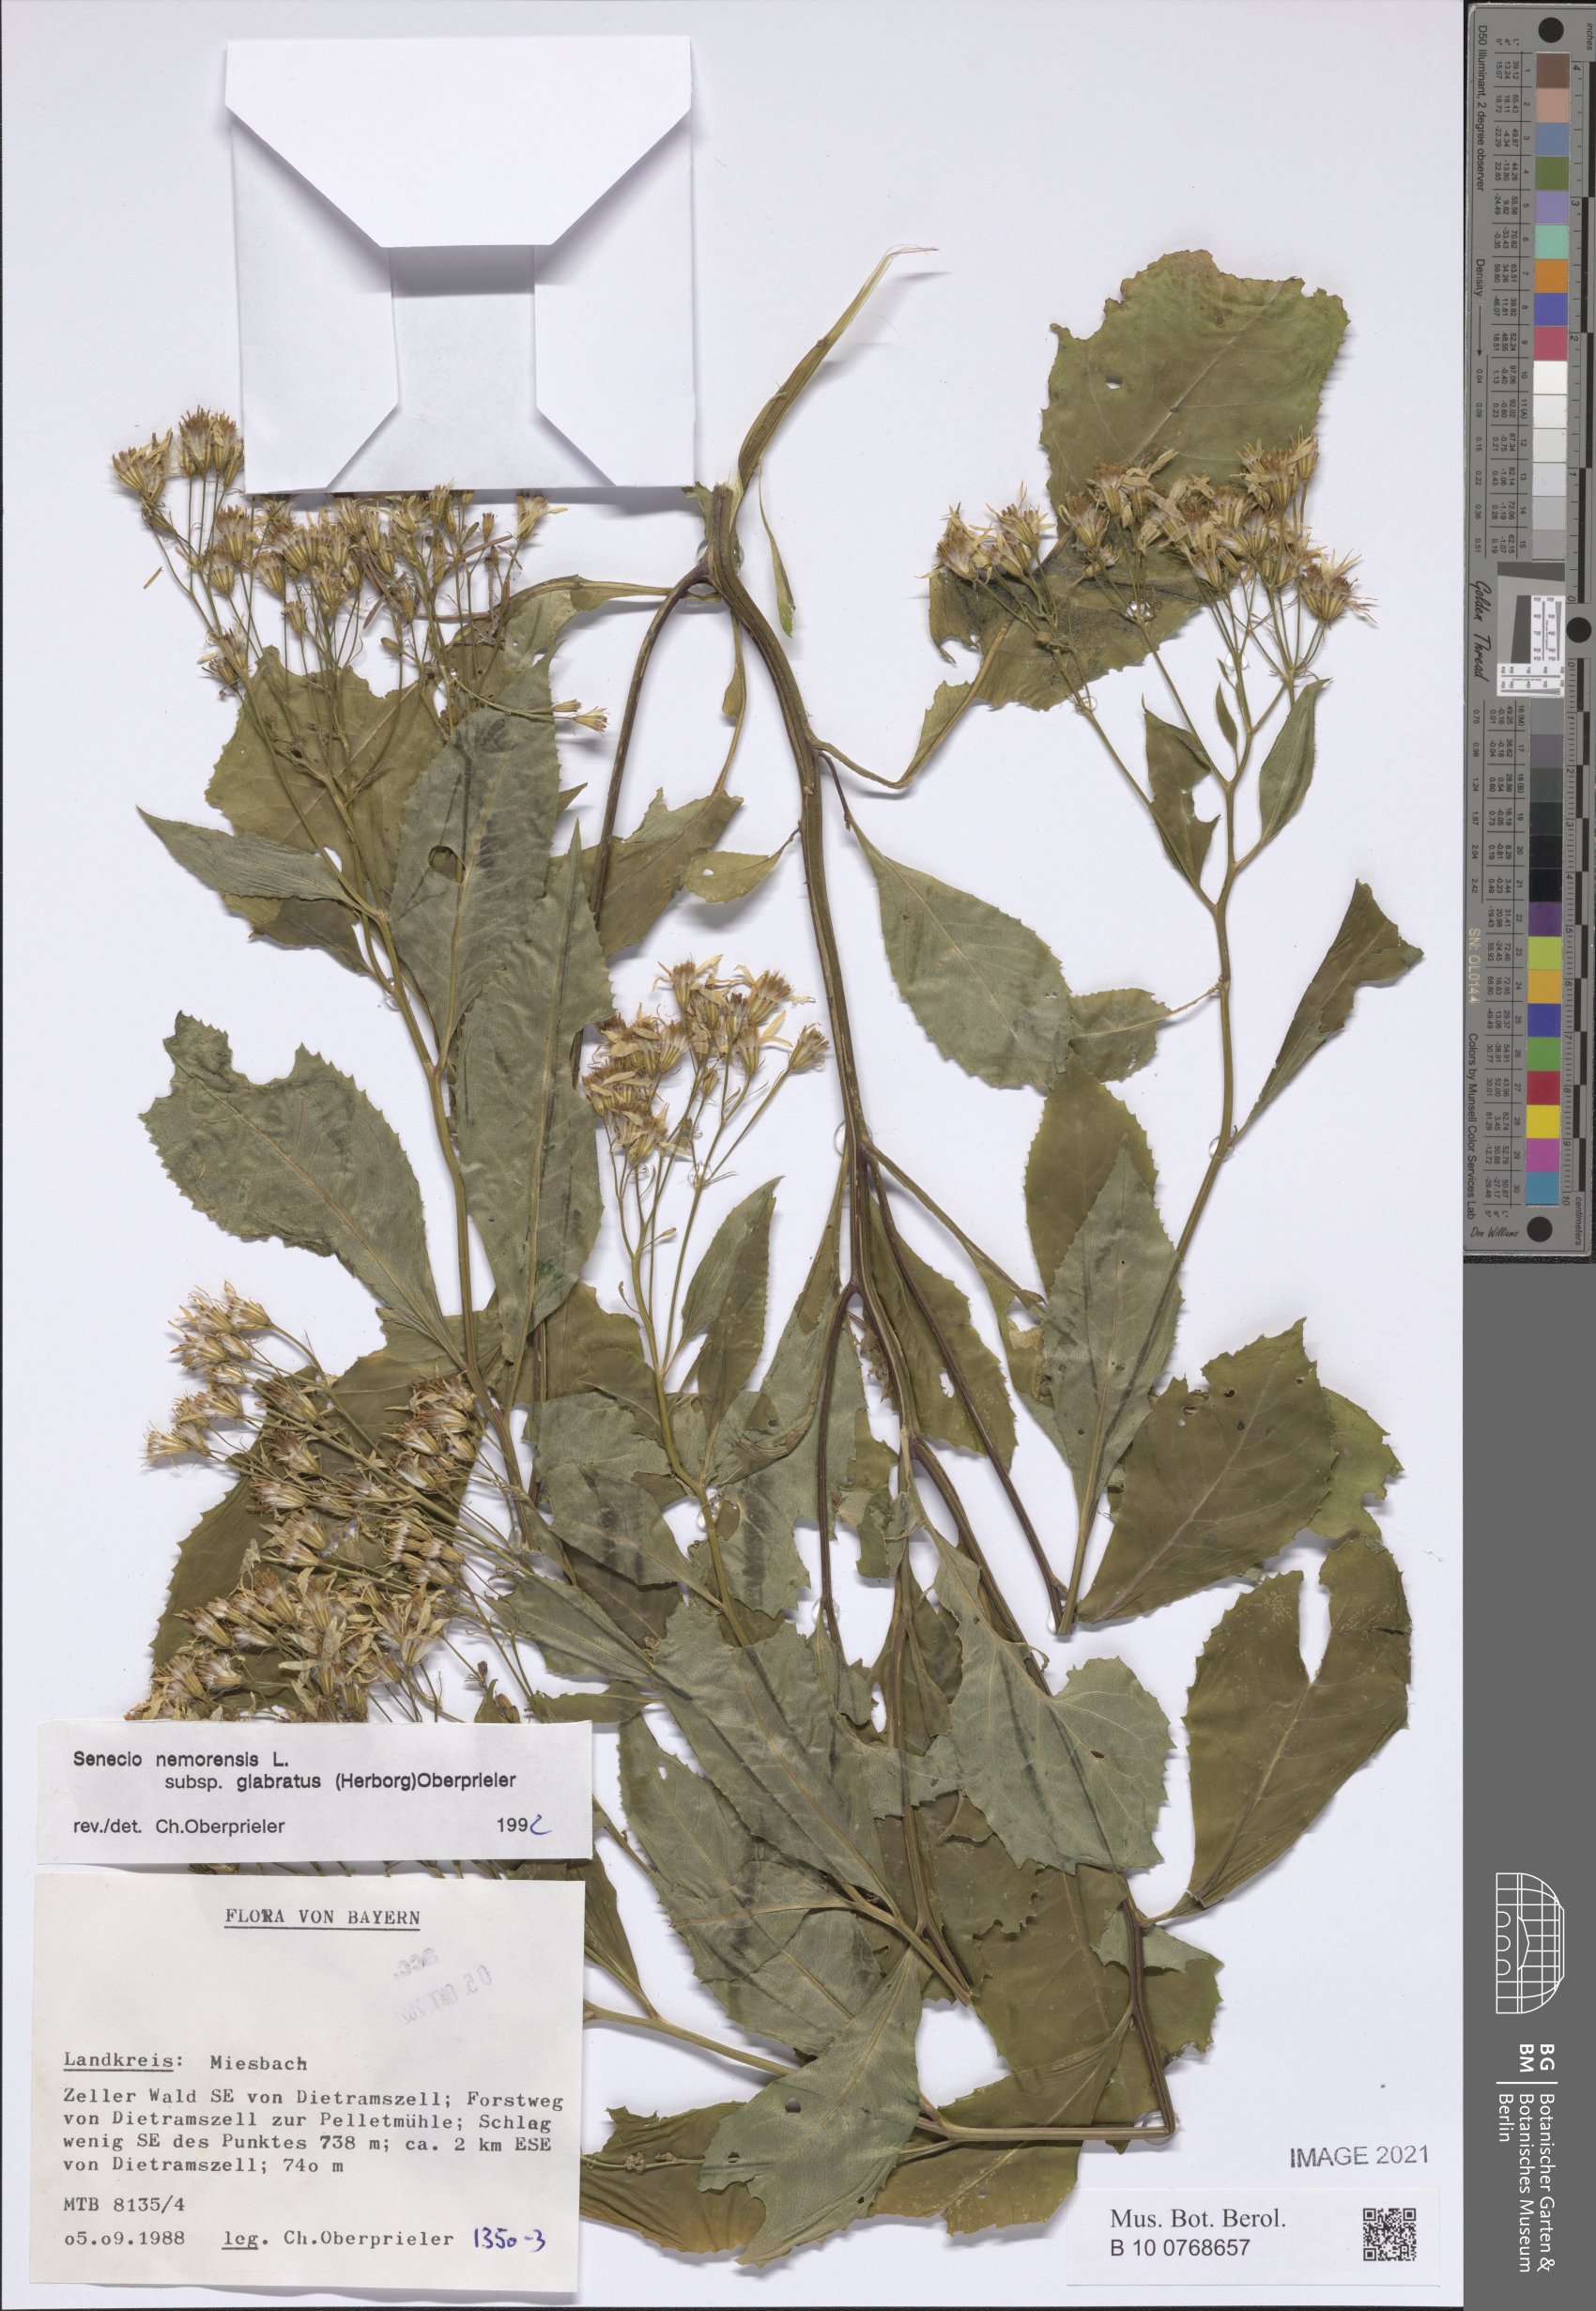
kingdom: Plantae
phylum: Tracheophyta
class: Magnoliopsida
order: Asterales
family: Asteraceae
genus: Senecio
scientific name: Senecio germanicus
